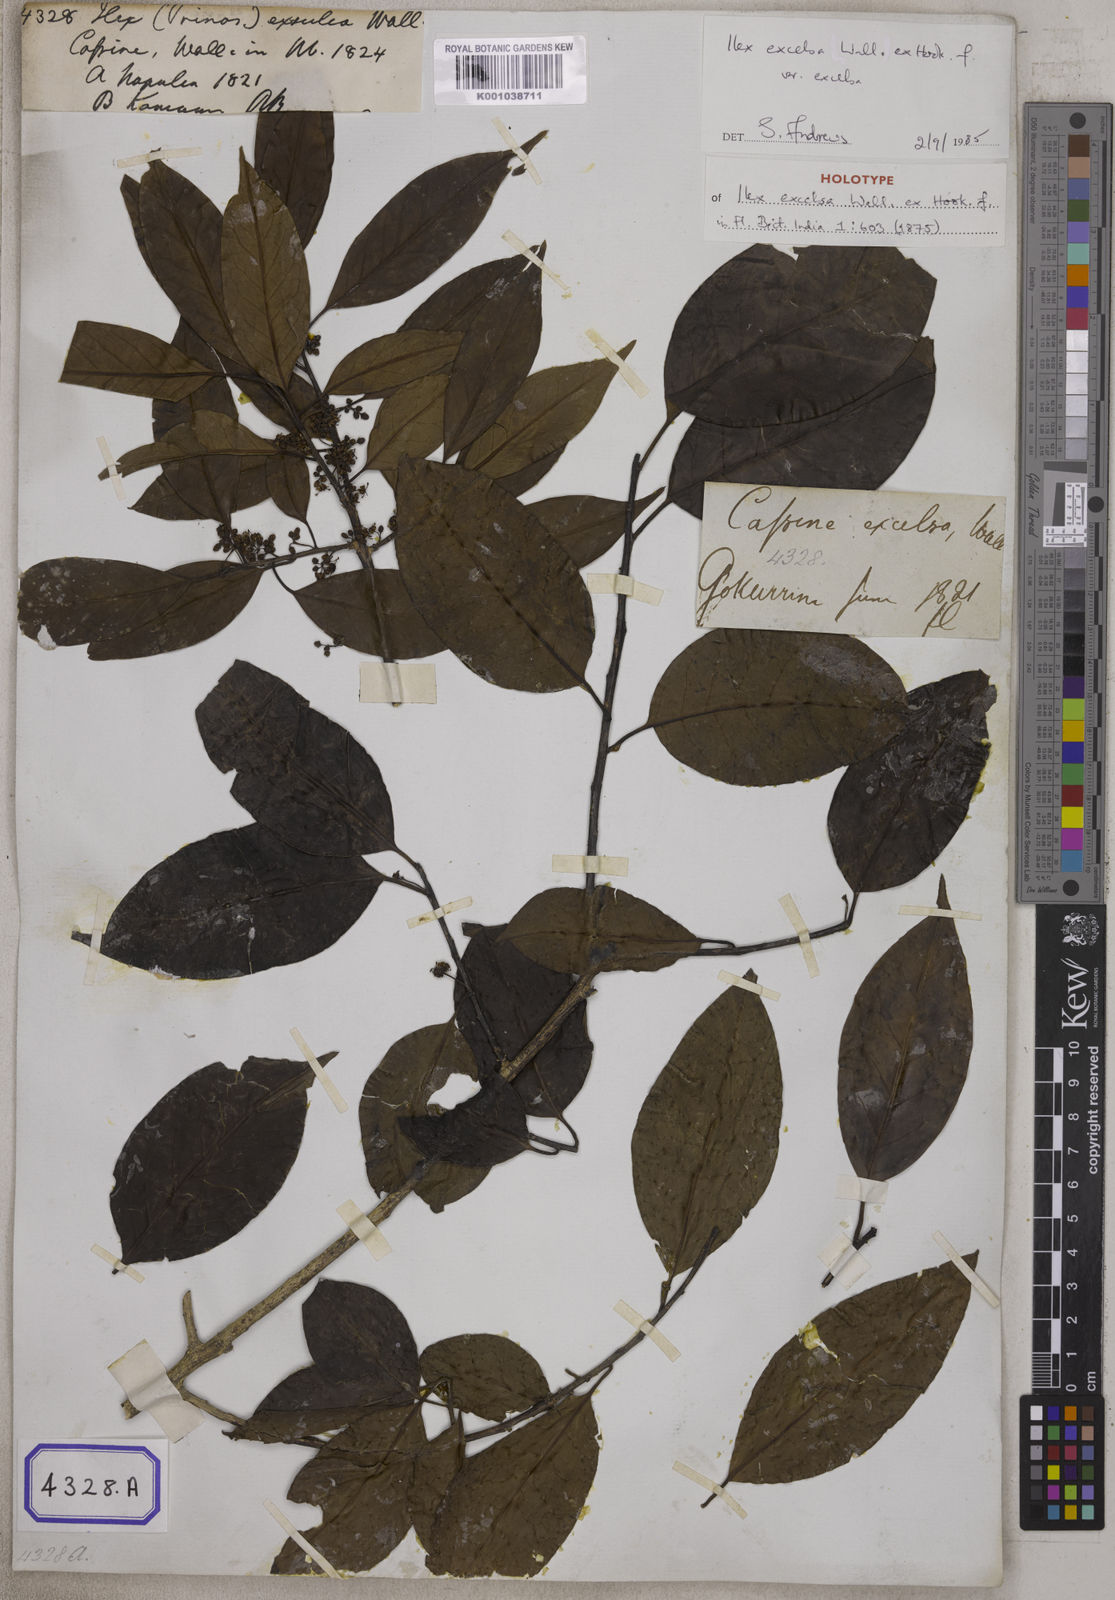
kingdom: Plantae
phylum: Tracheophyta
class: Magnoliopsida
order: Aquifoliales
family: Aquifoliaceae
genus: Ilex
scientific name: Ilex excelsa
